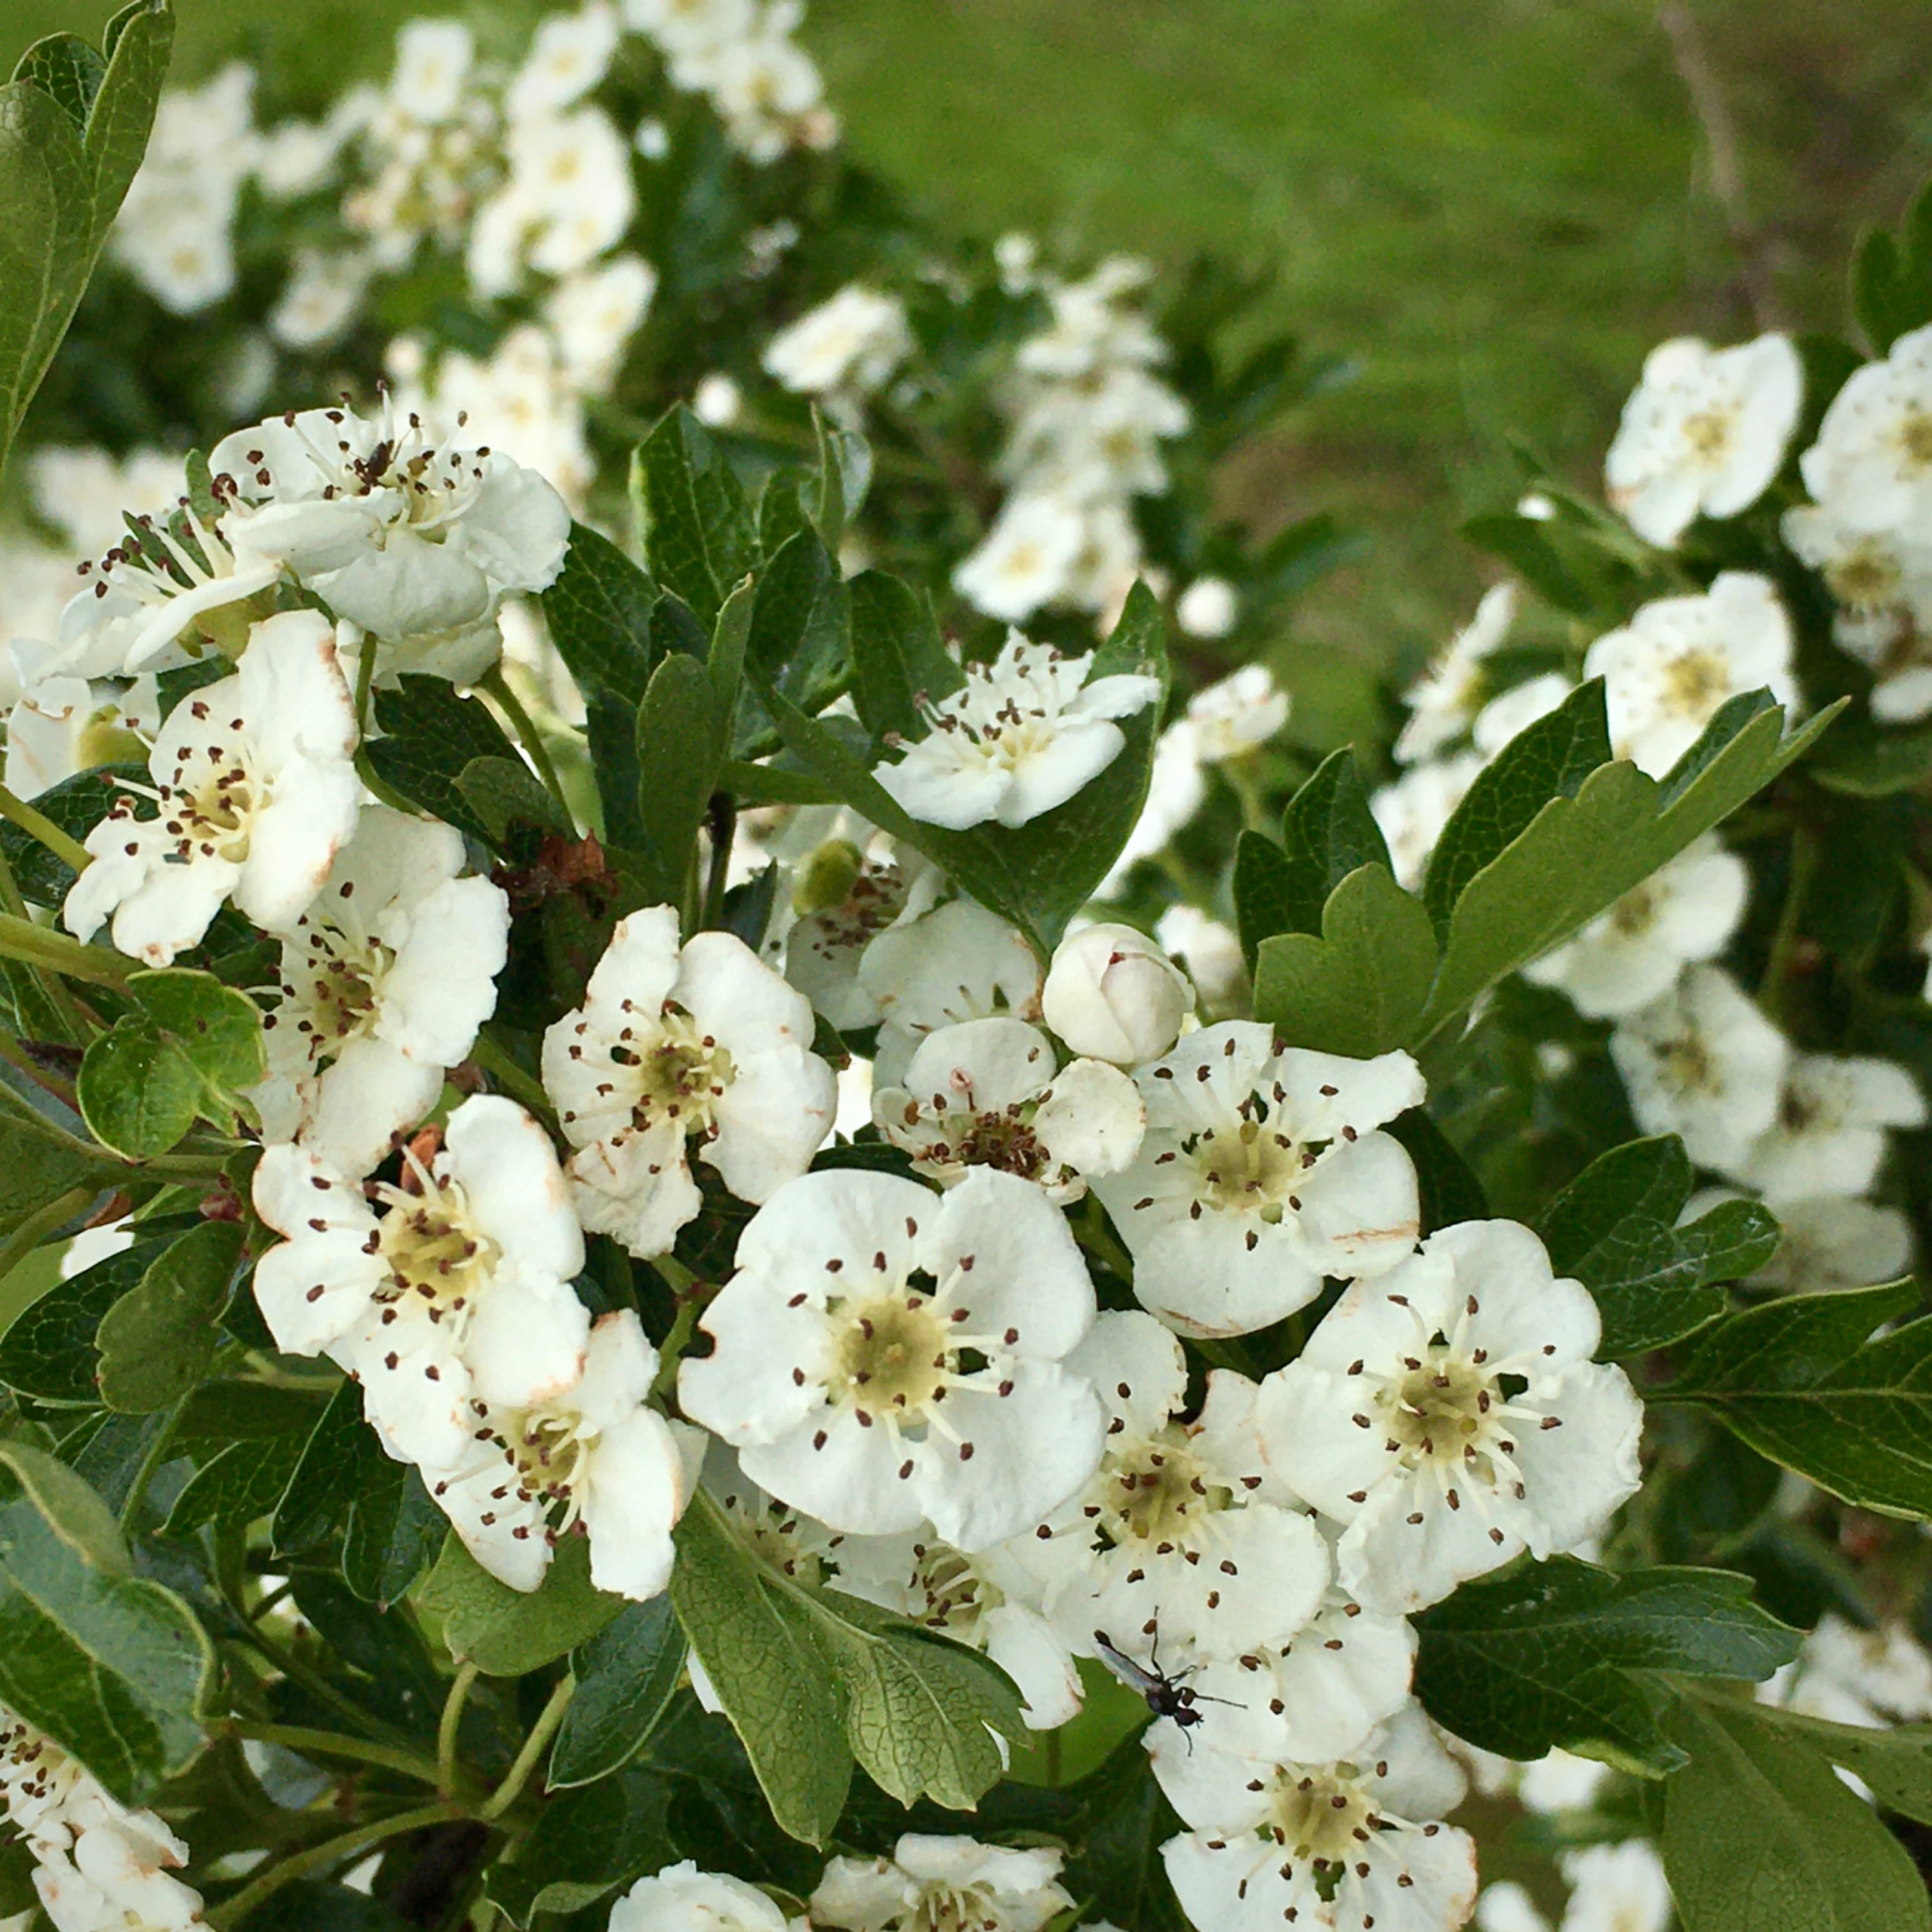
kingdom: Plantae
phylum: Tracheophyta
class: Magnoliopsida
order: Rosales
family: Rosaceae
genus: Crataegus
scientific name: Crataegus
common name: Hvidtjørnslægten
